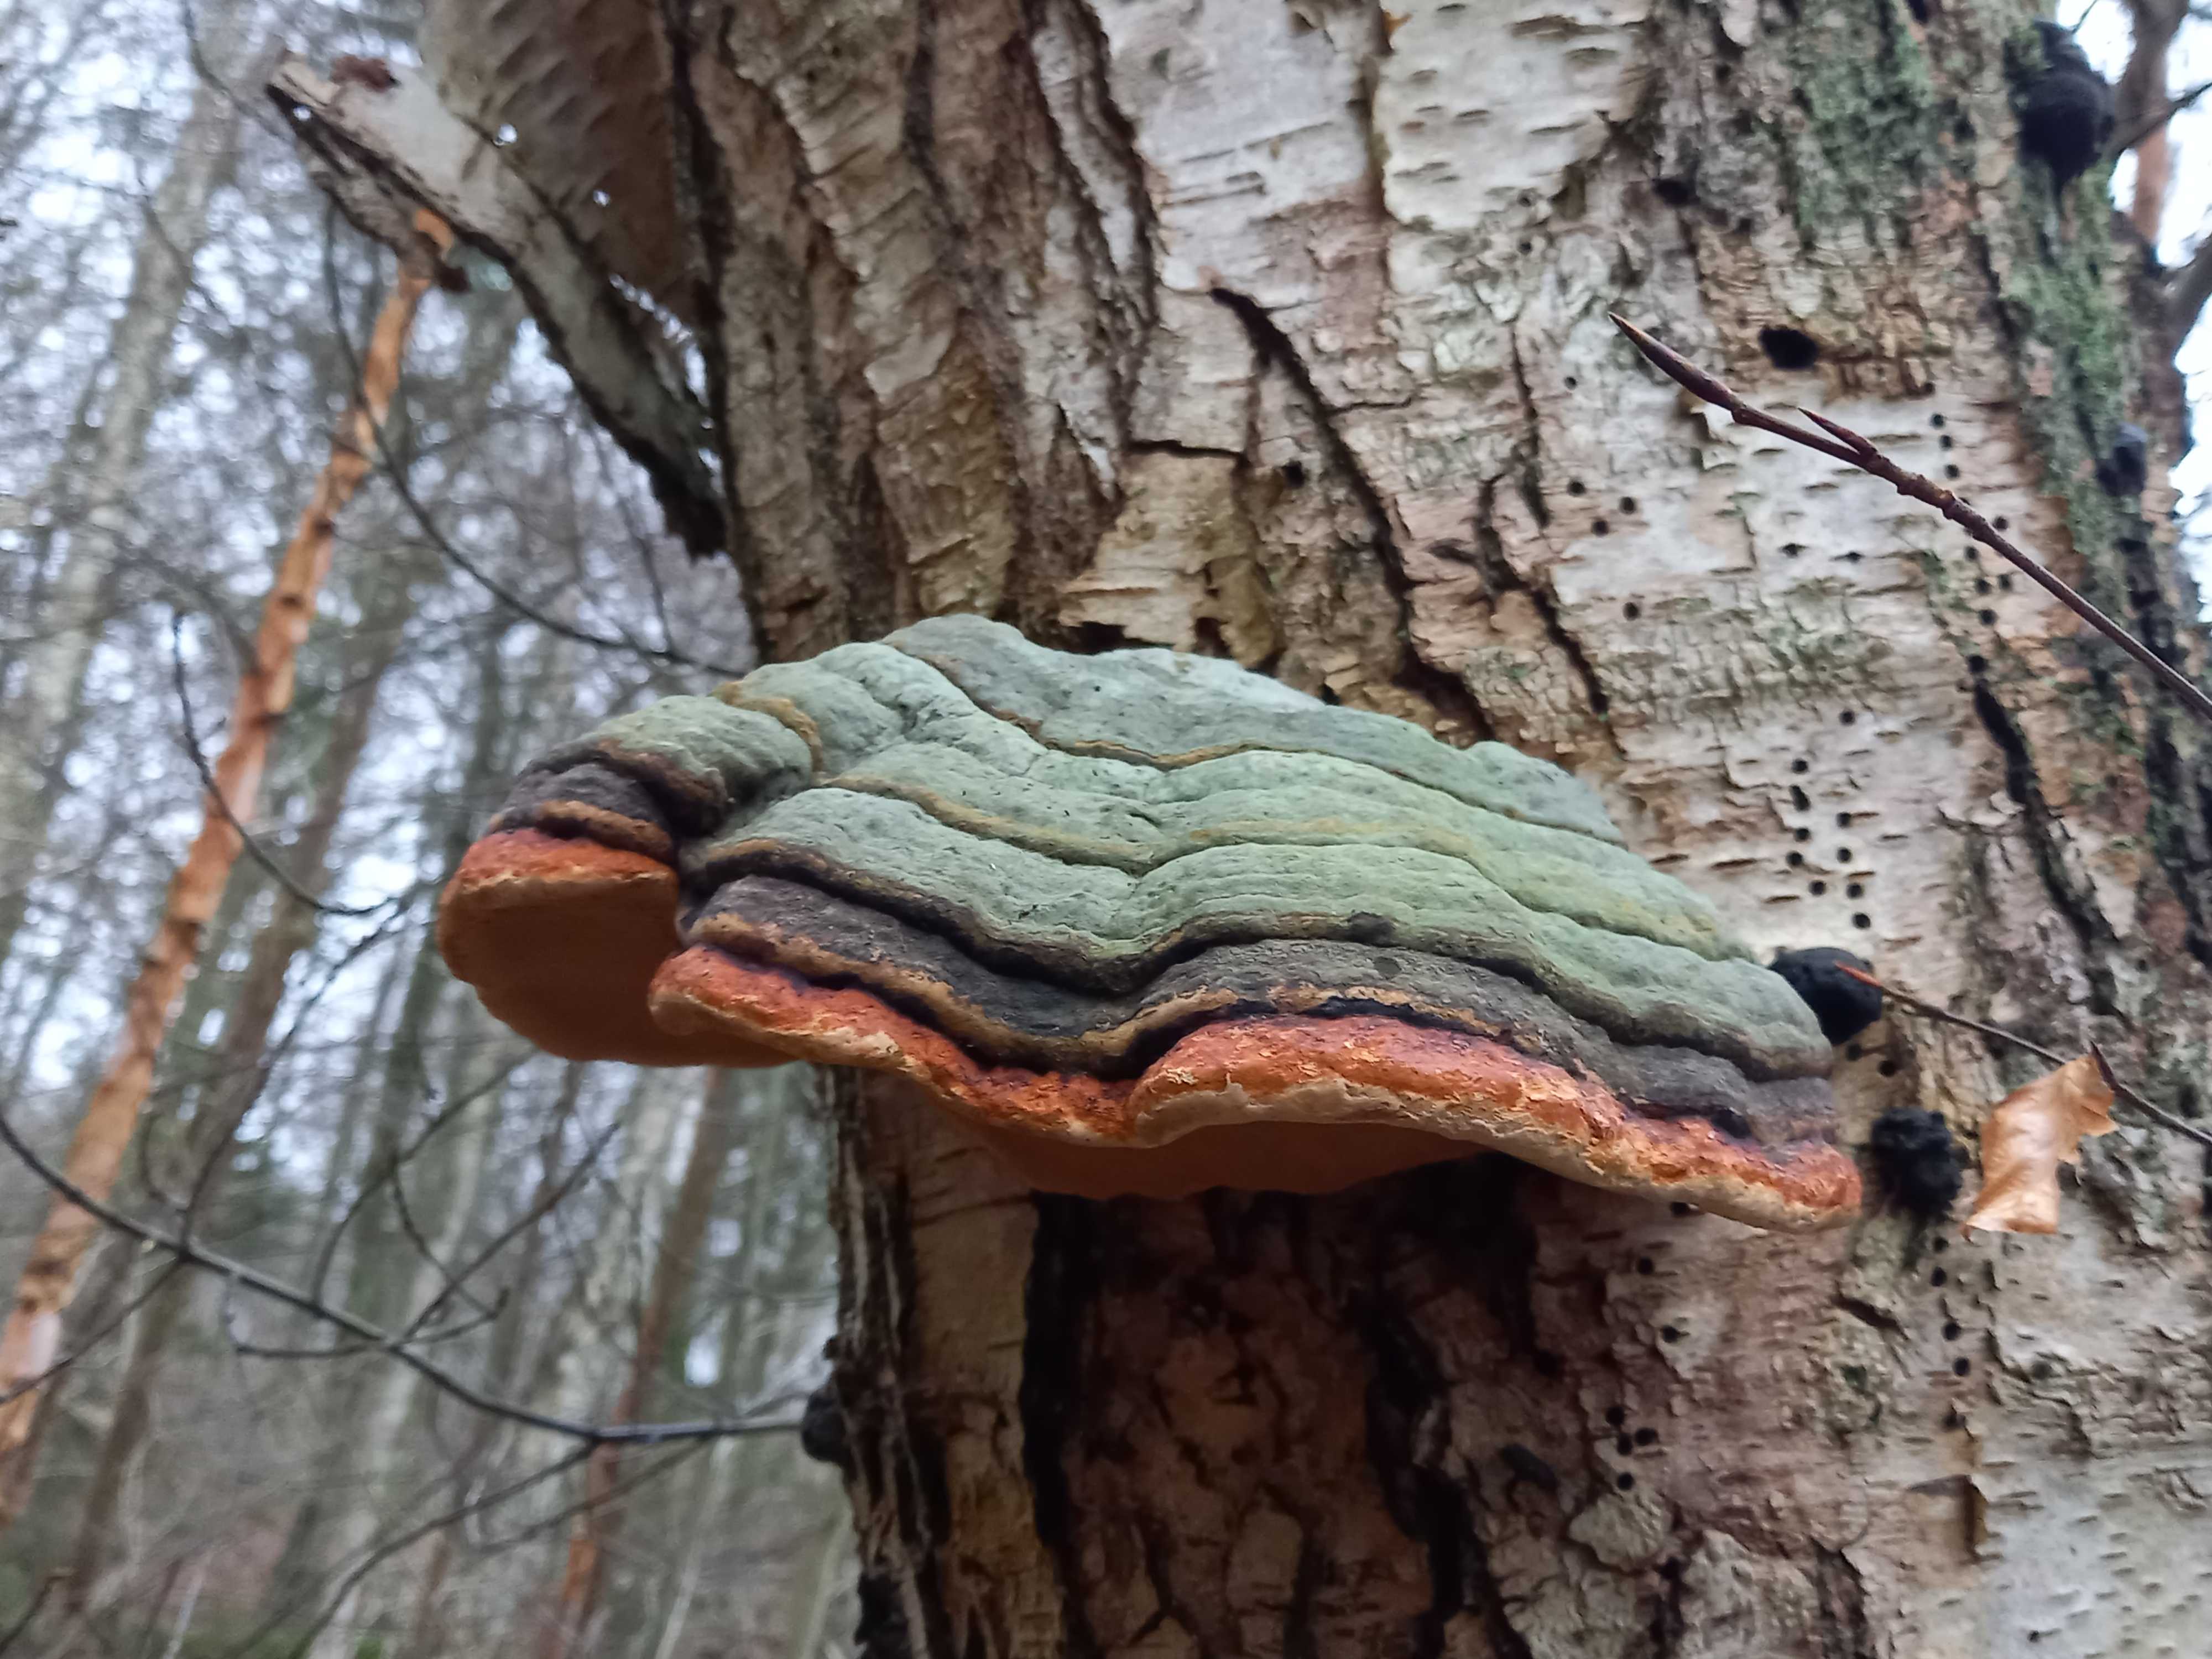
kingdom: Fungi
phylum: Basidiomycota
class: Agaricomycetes
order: Polyporales
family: Fomitopsidaceae
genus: Fomitopsis
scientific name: Fomitopsis pinicola
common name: randbæltet hovporesvamp
